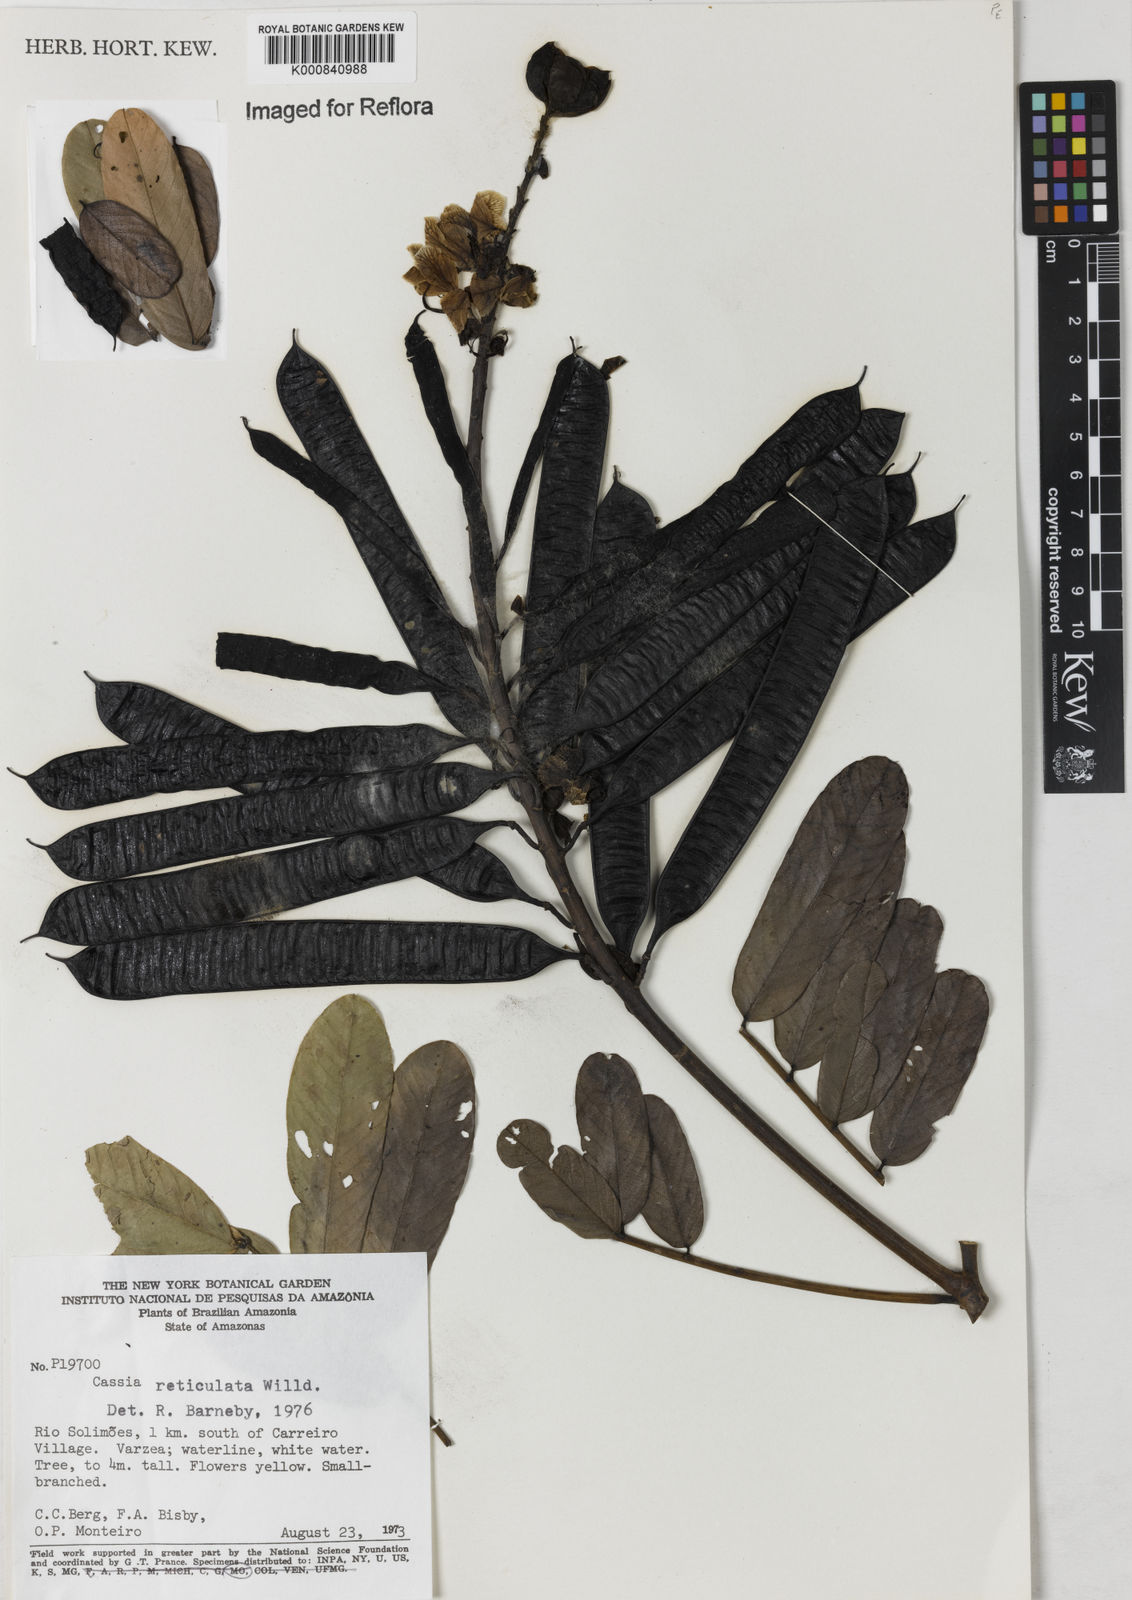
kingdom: Plantae
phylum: Tracheophyta
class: Magnoliopsida
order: Fabales
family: Fabaceae
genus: Senna
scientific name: Senna reticulata
